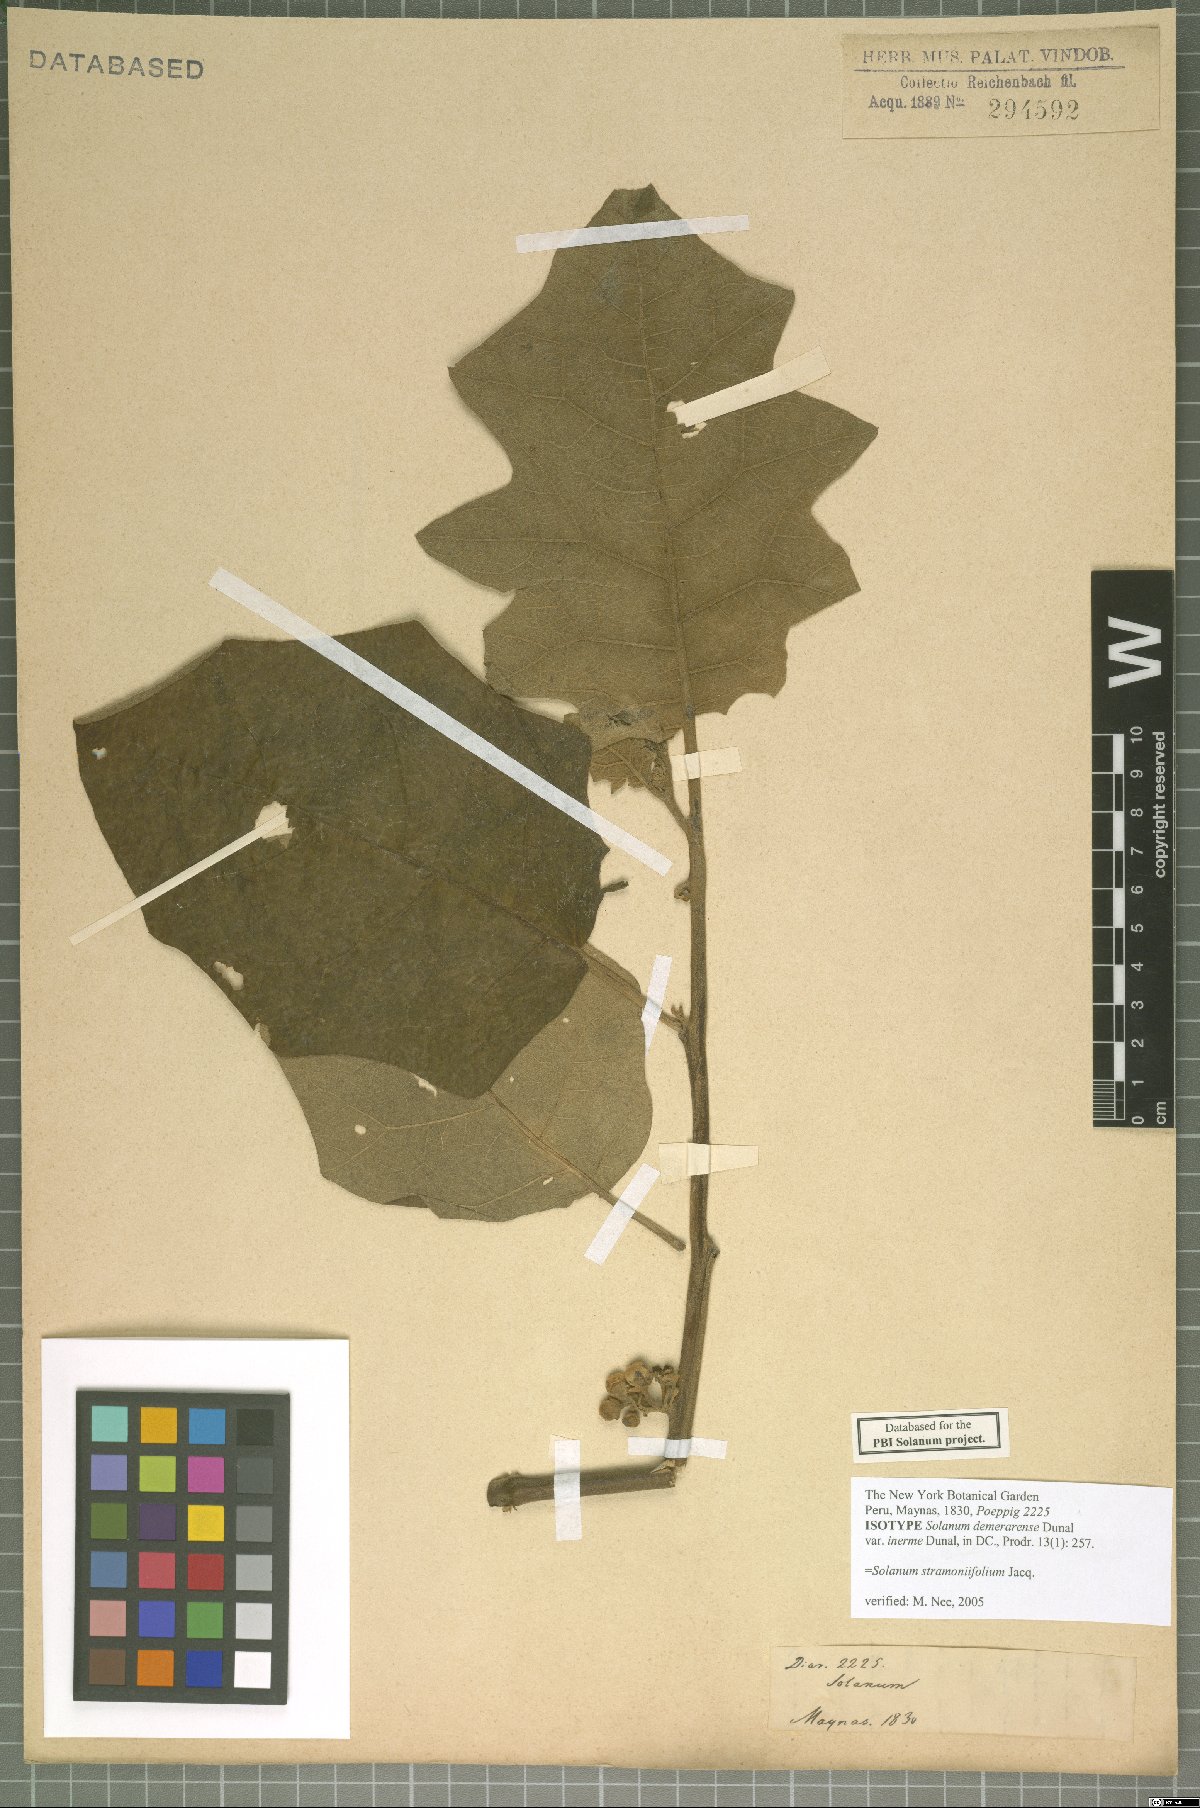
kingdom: Plantae
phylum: Tracheophyta
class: Magnoliopsida
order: Solanales
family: Solanaceae
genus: Solanum
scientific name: Solanum stramonifolium
